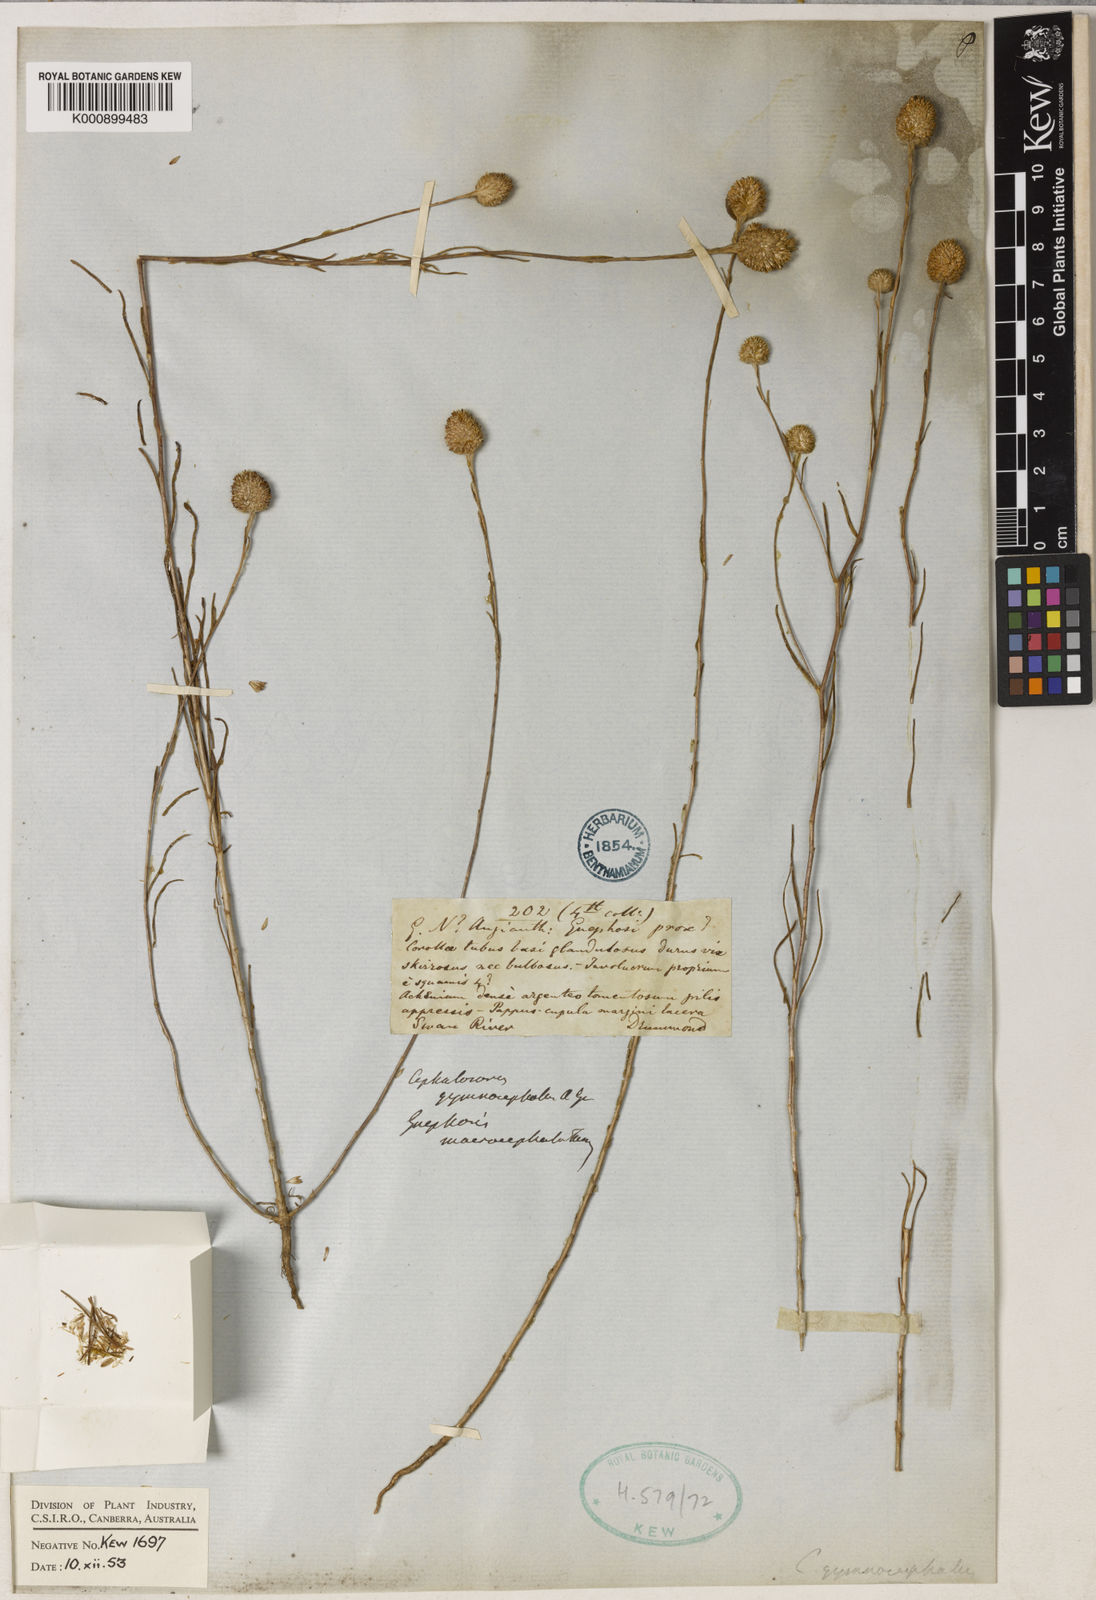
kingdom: Plantae
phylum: Tracheophyta
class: Magnoliopsida
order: Asterales
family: Asteraceae
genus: Gnephosis
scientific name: Gnephosis macrocephala
